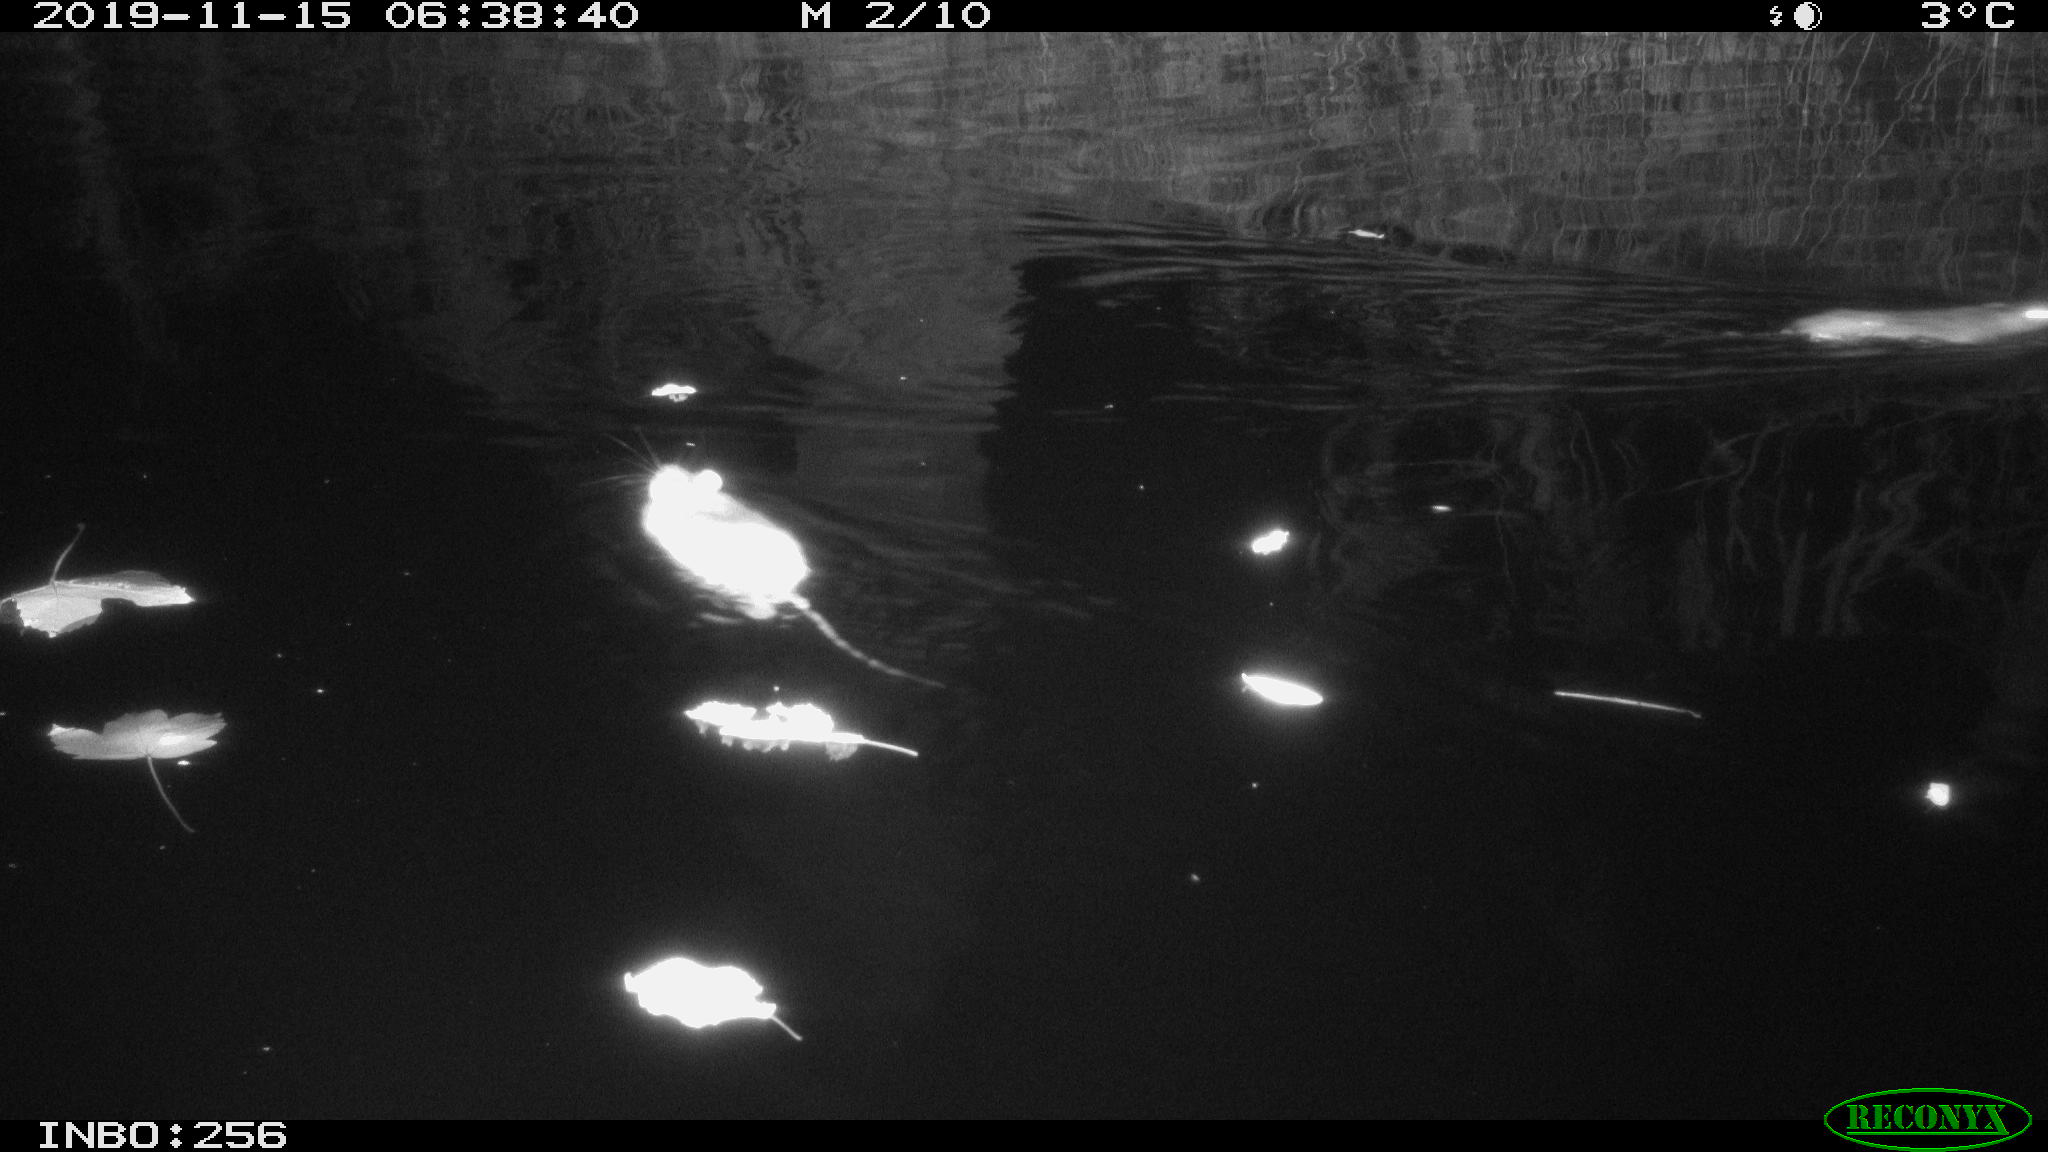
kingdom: Animalia
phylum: Chordata
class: Mammalia
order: Rodentia
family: Muridae
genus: Rattus
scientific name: Rattus norvegicus
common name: Brown rat
